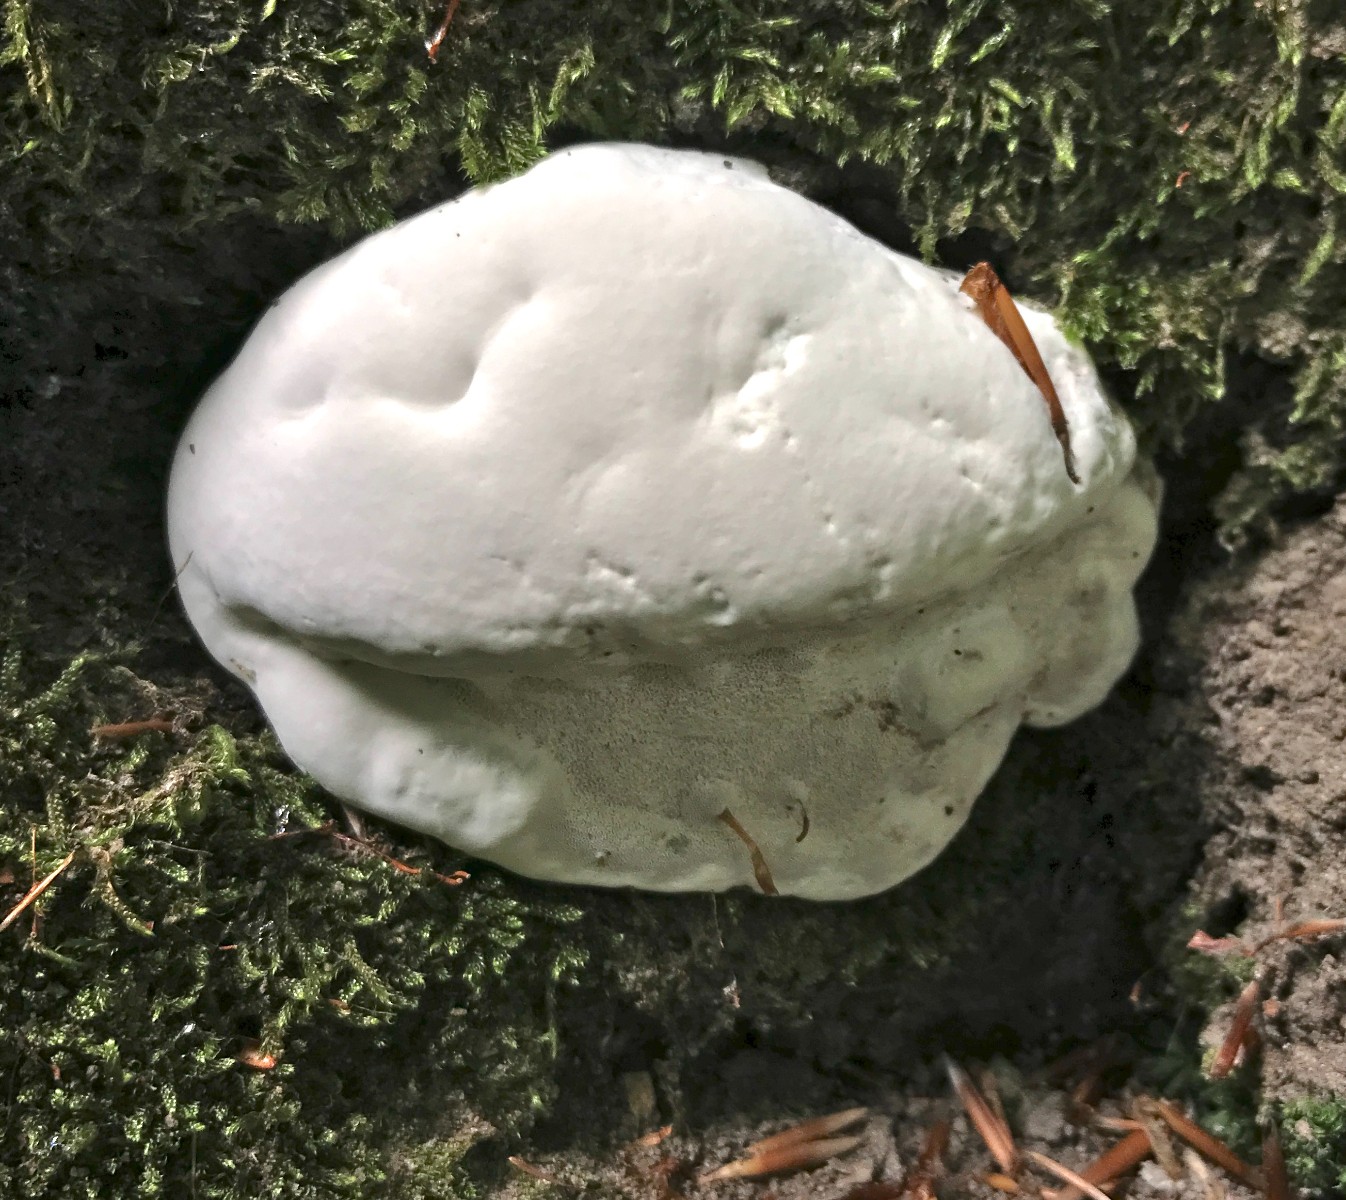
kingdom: Fungi
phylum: Basidiomycota
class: Agaricomycetes
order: Polyporales
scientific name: Polyporales
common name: poresvampordenen
